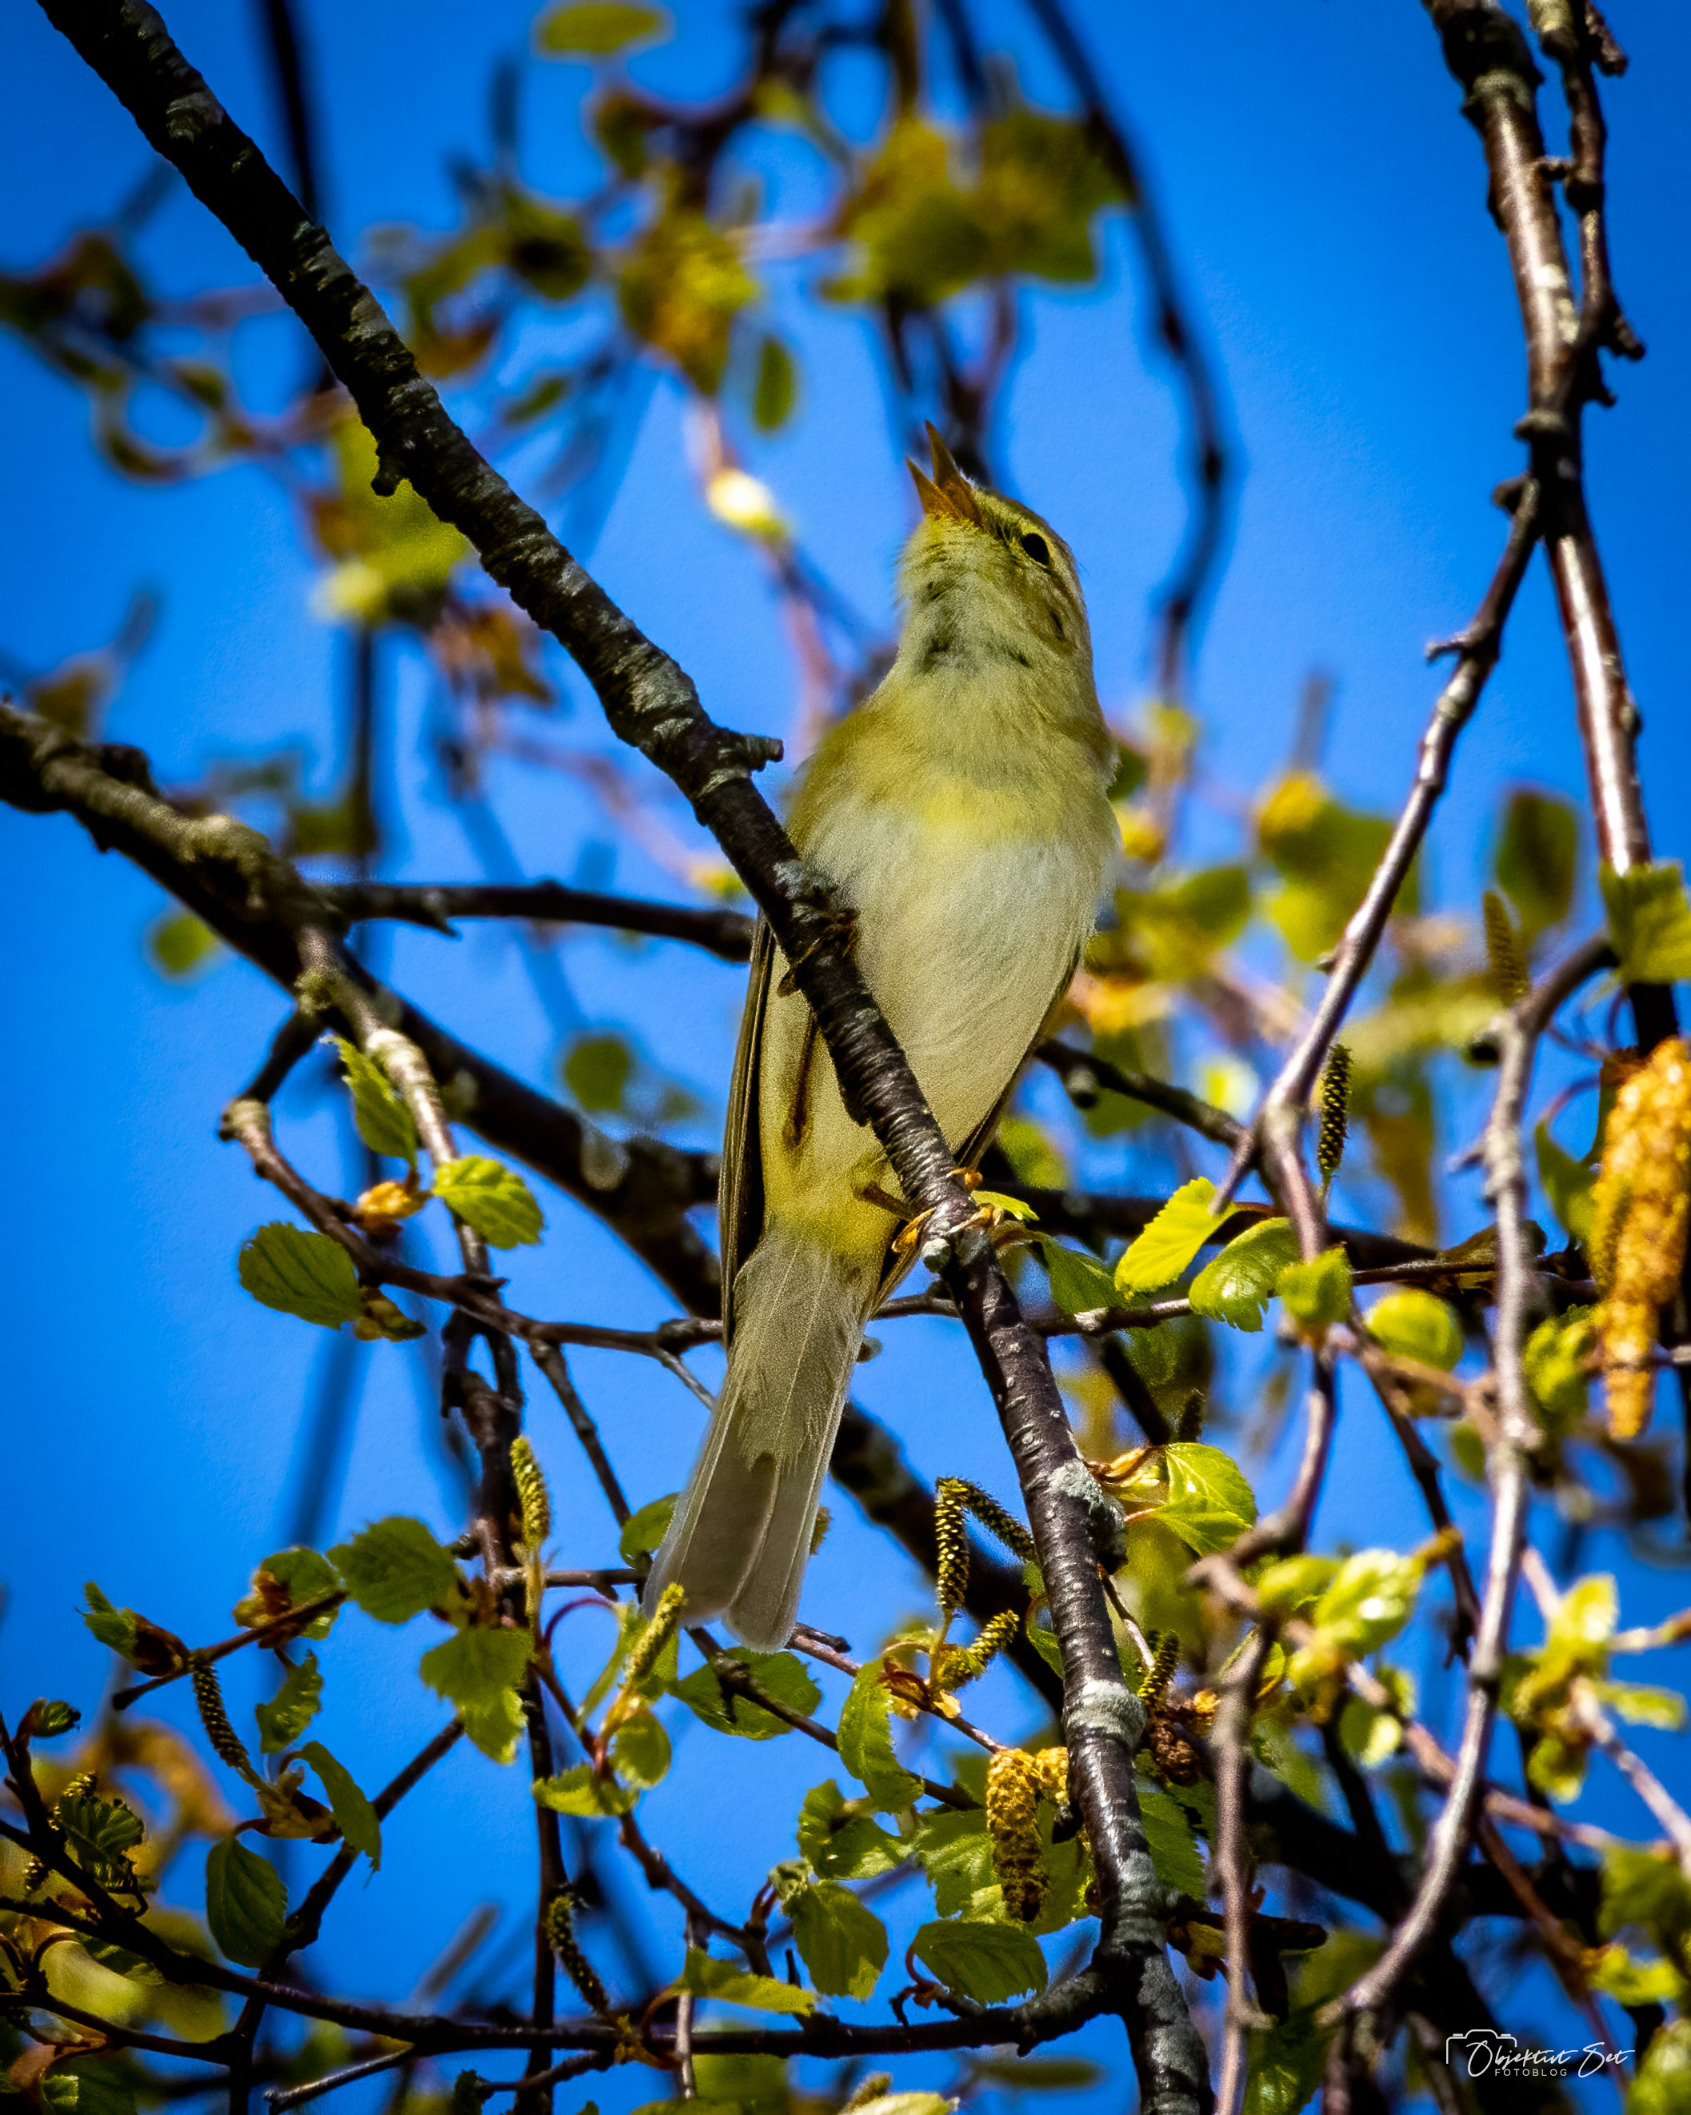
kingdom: Animalia
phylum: Chordata
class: Aves
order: Passeriformes
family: Phylloscopidae
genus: Phylloscopus
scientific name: Phylloscopus trochilus
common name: Løvsanger
